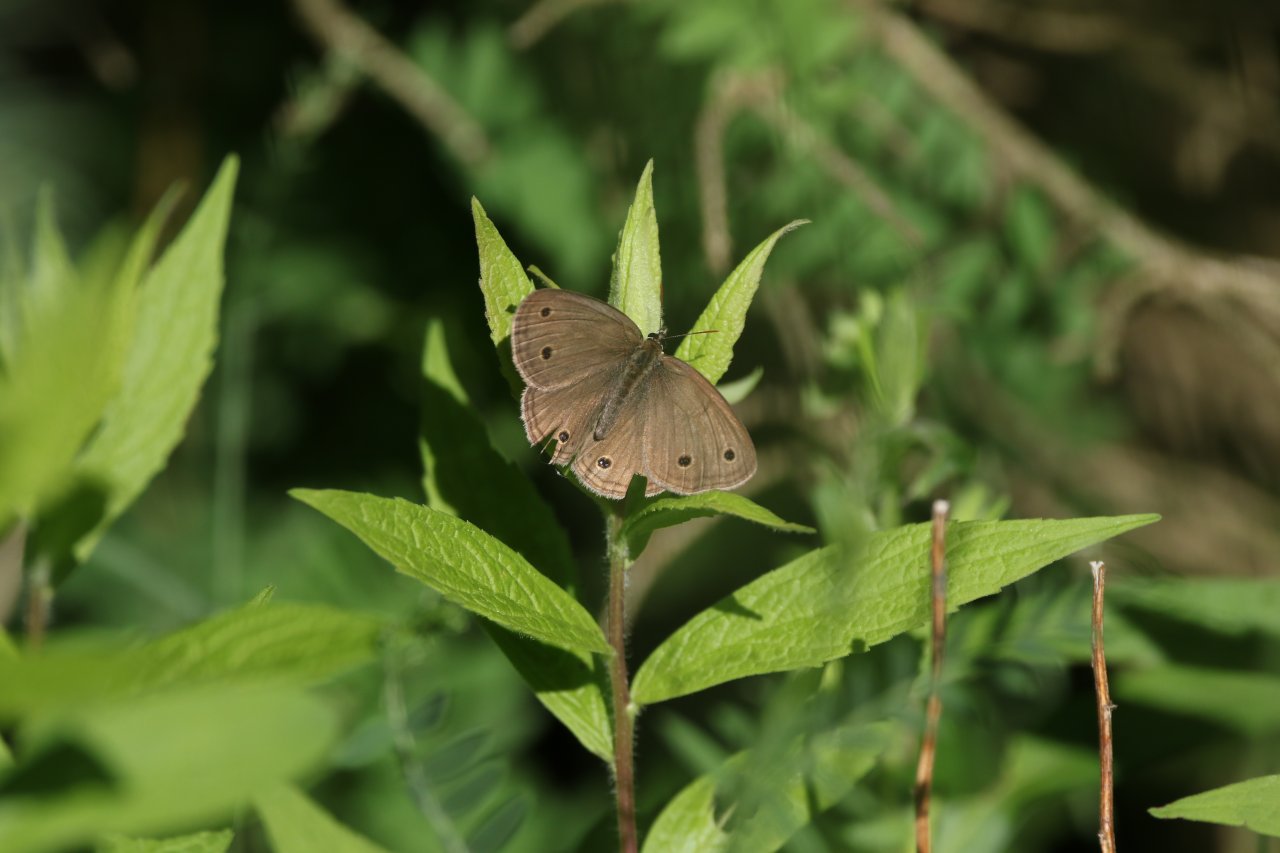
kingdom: Animalia
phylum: Arthropoda
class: Insecta
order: Lepidoptera
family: Nymphalidae
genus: Euptychia
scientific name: Euptychia cymela
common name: Little Wood Satyr
